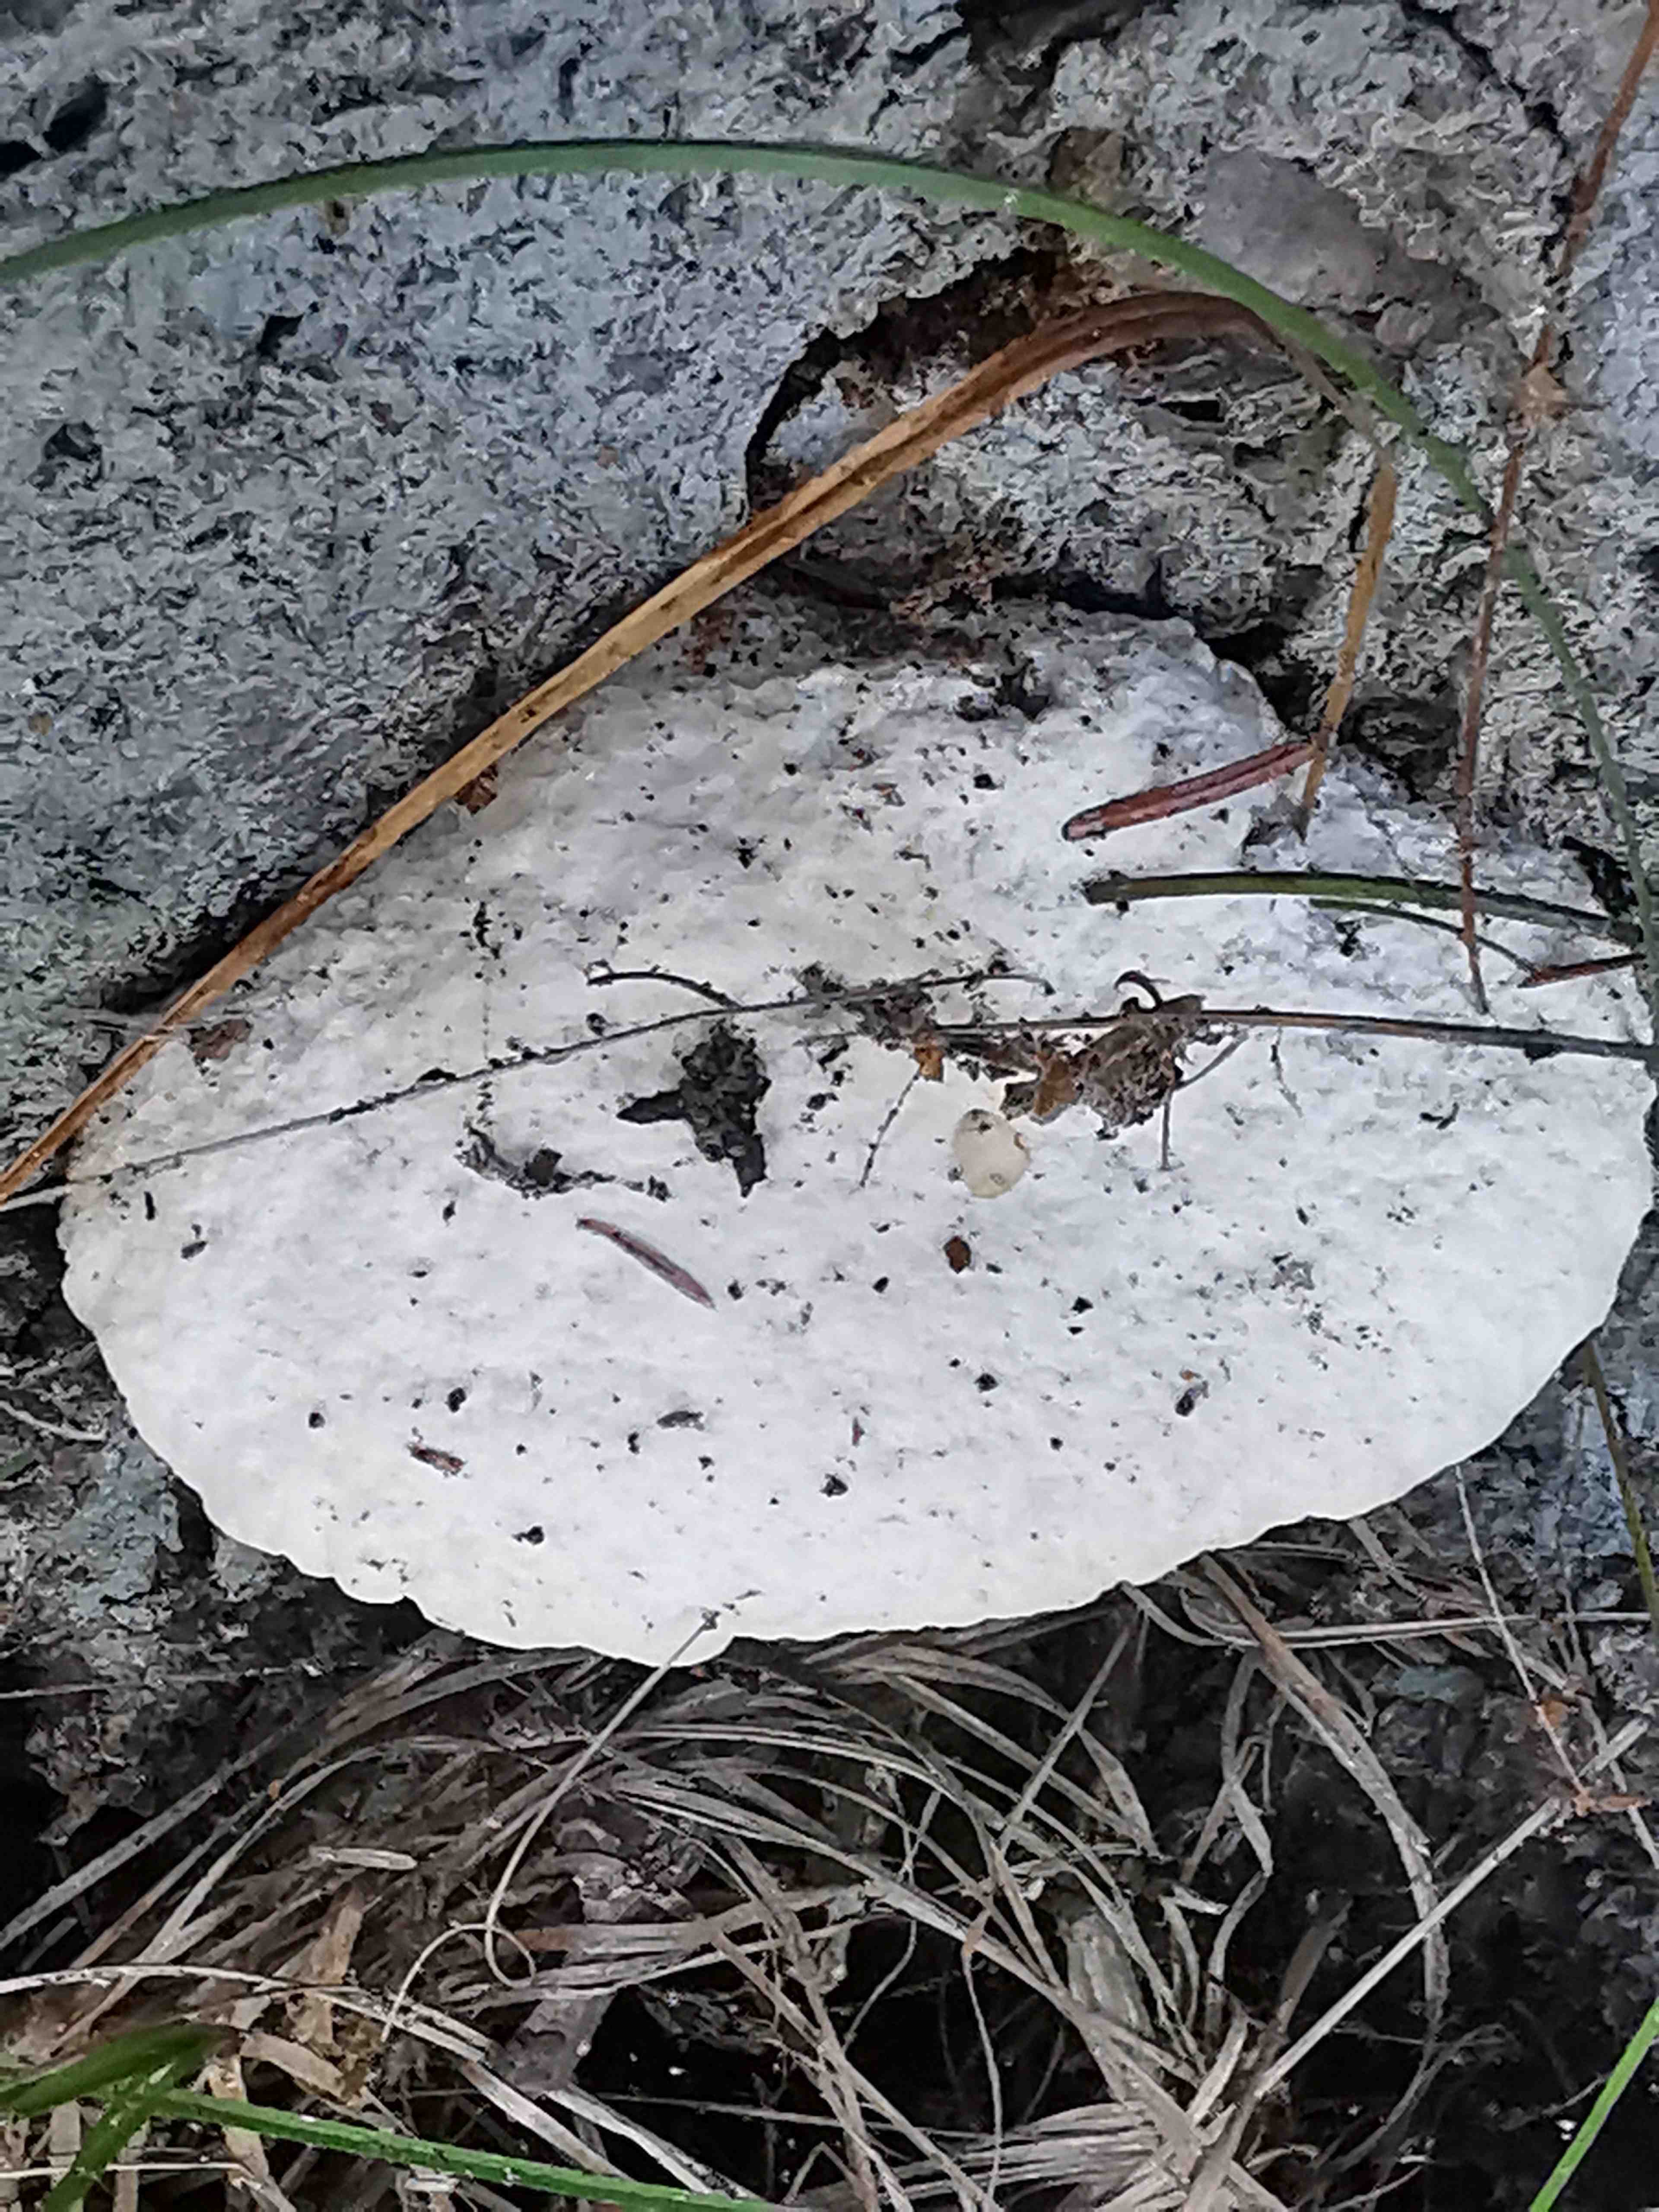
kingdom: Fungi
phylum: Basidiomycota
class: Agaricomycetes
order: Polyporales
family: Incrustoporiaceae
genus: Tyromyces
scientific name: Tyromyces lacteus
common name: mælkehvid kødporesvamp
